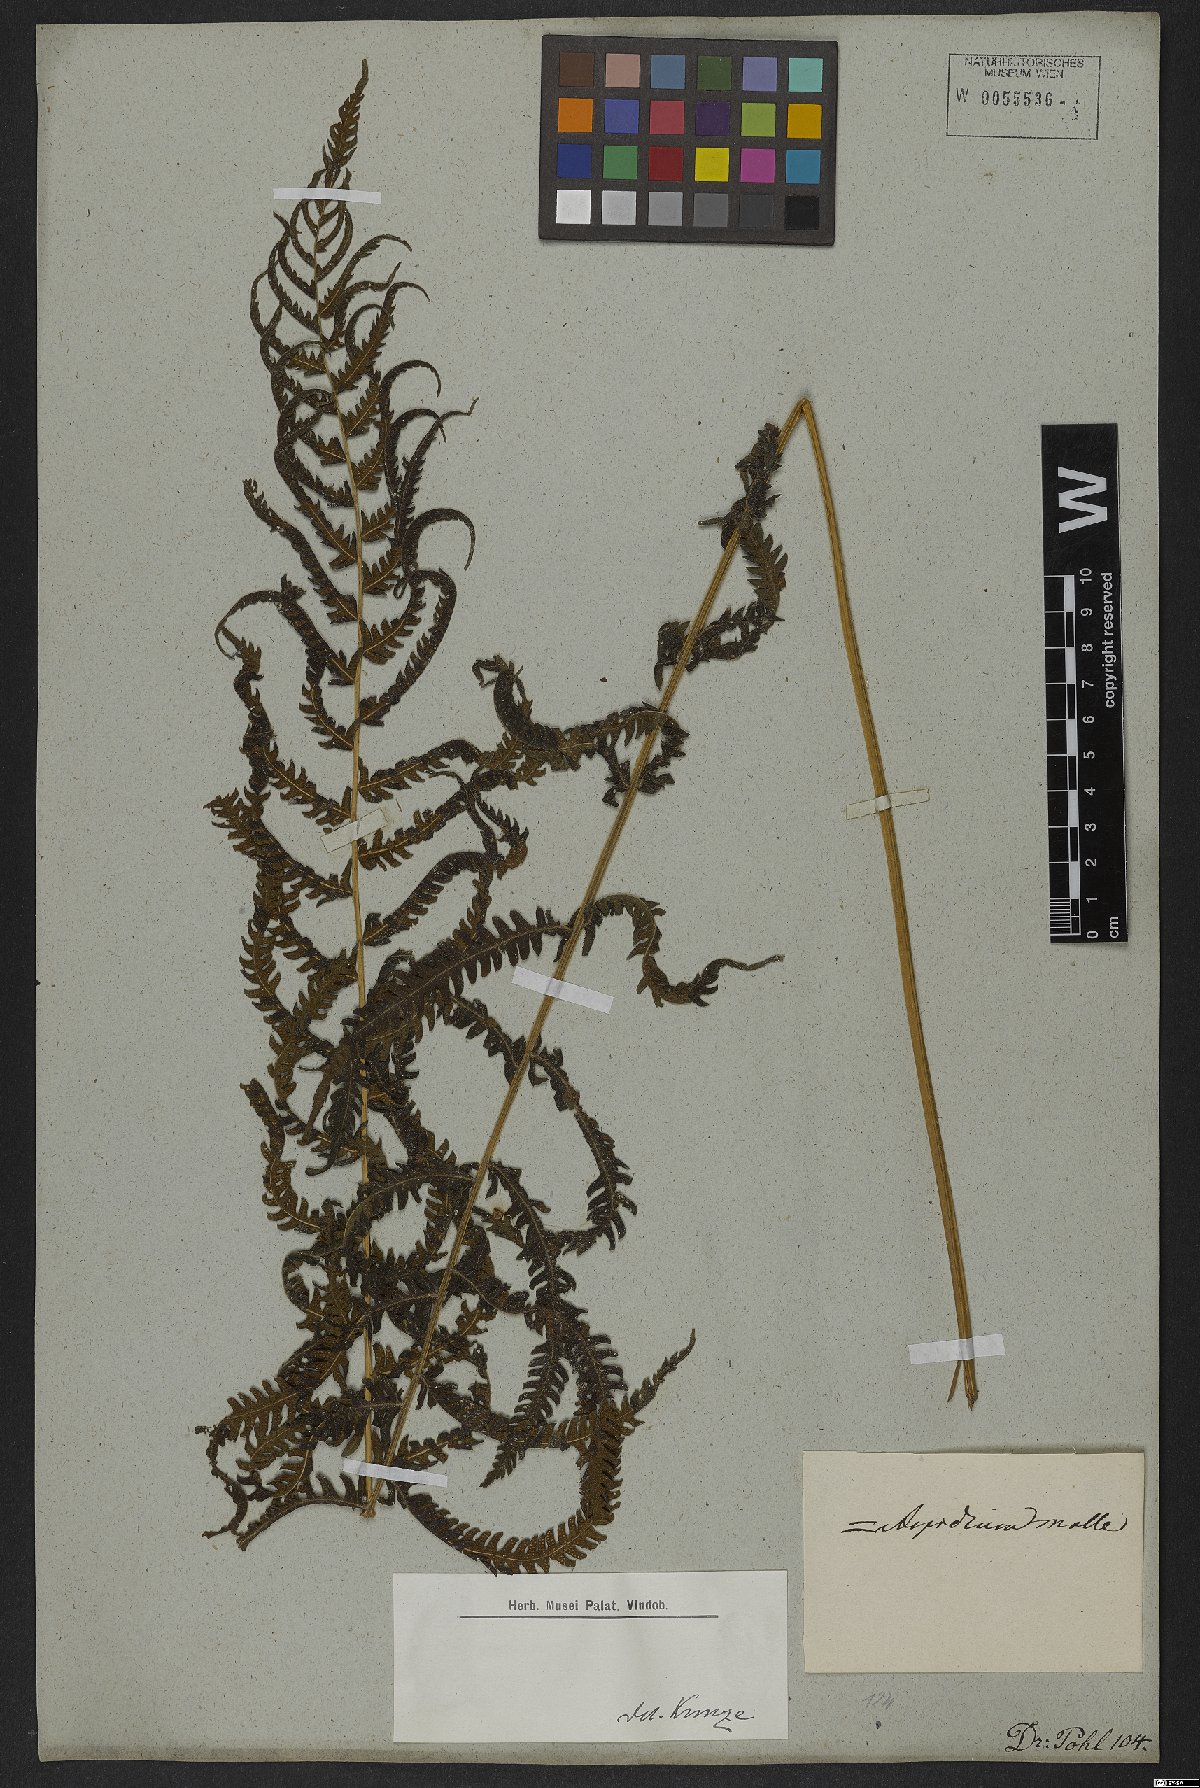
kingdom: Plantae
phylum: Tracheophyta
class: Polypodiopsida
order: Polypodiales
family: Thelypteridaceae
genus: Christella
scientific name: Christella parasitica
